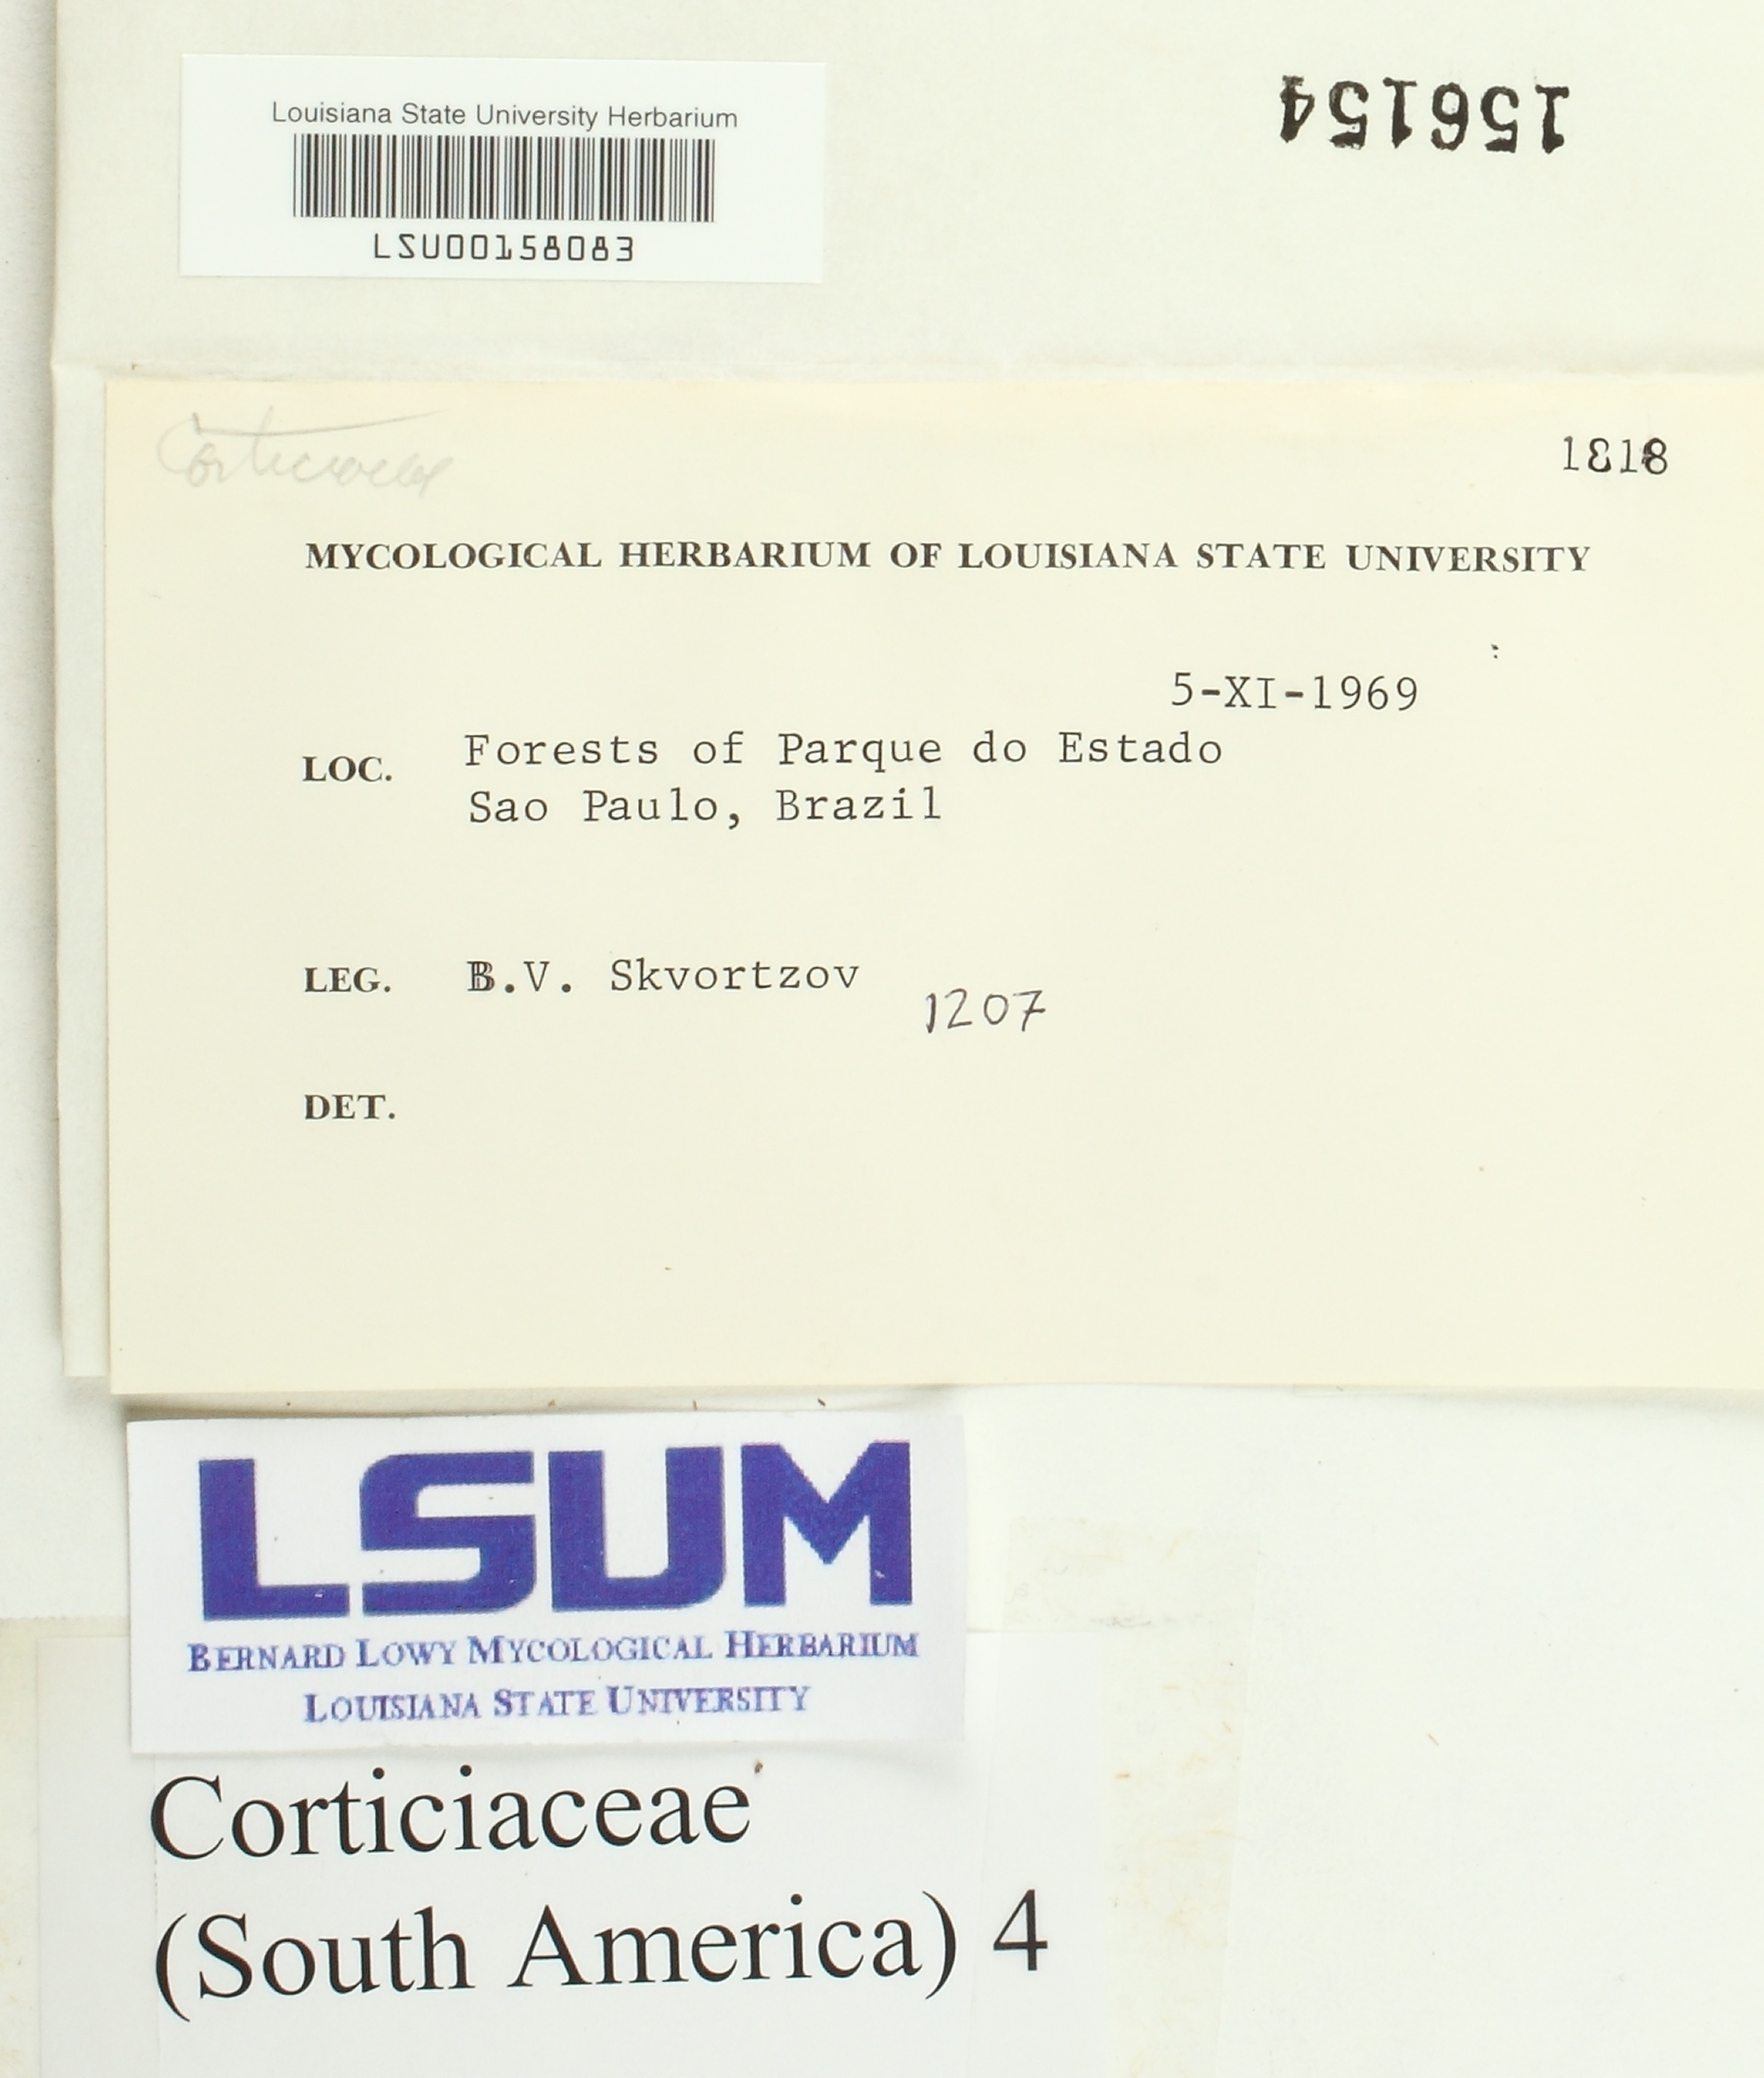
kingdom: Fungi
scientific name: Fungi
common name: Fungi
